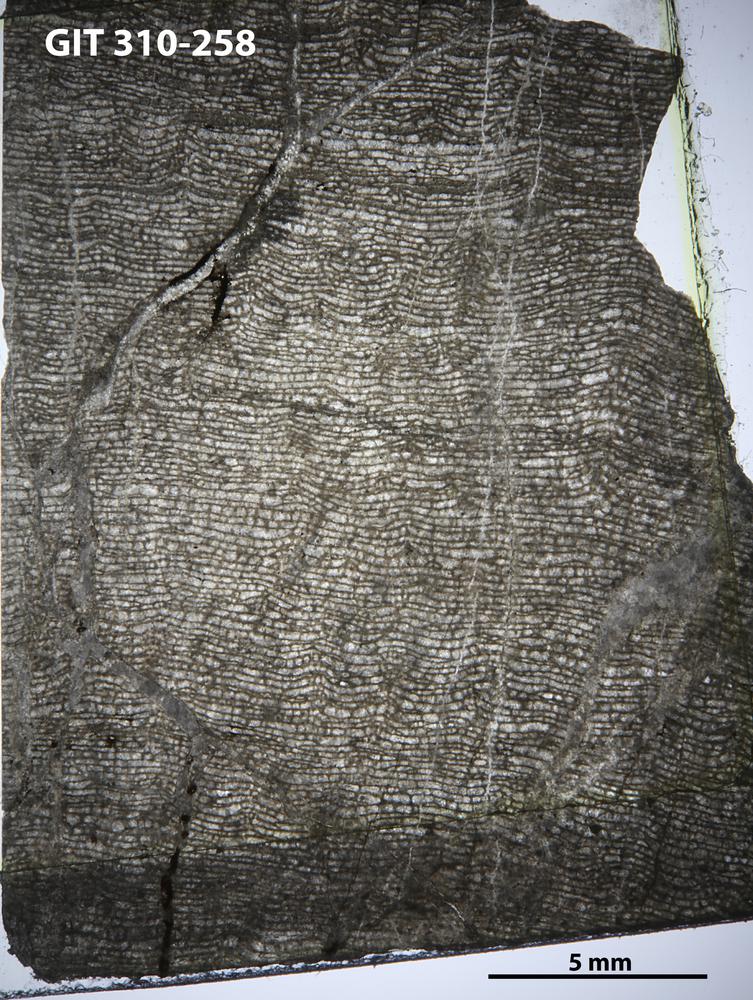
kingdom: Animalia
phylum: Porifera
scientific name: Porifera
